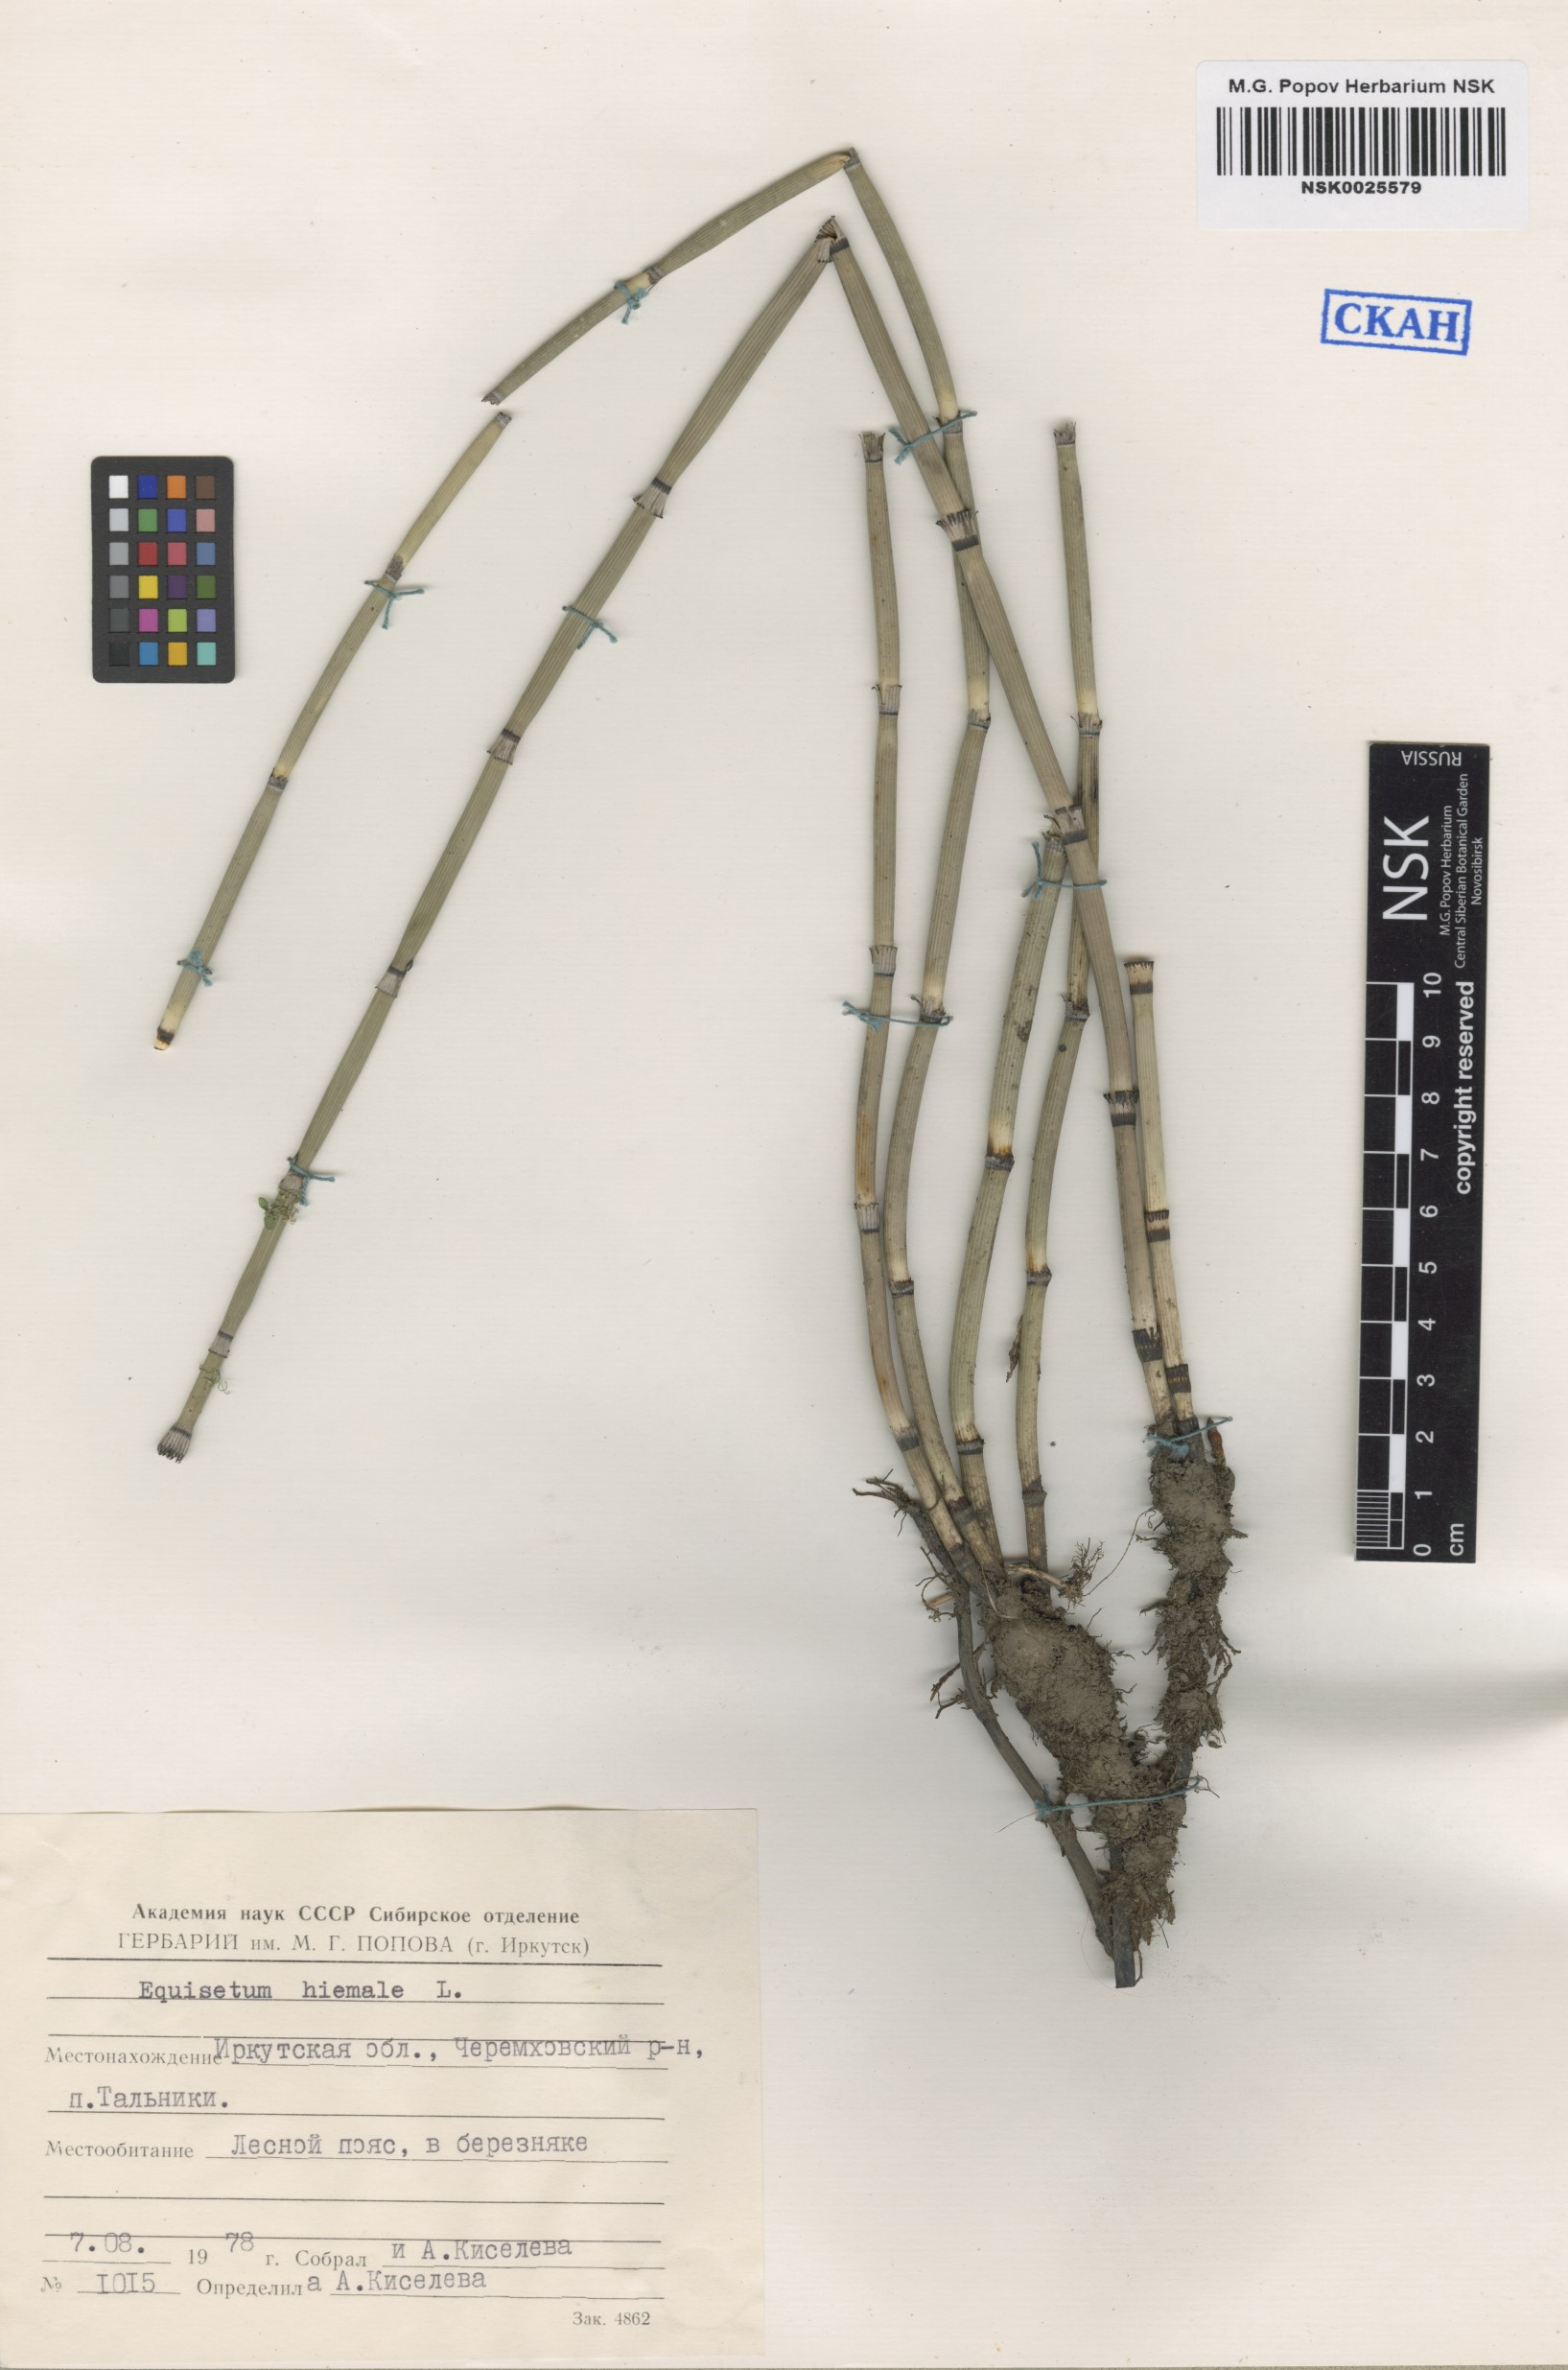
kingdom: Plantae
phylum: Tracheophyta
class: Polypodiopsida
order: Equisetales
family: Equisetaceae
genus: Equisetum
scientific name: Equisetum hyemale
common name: Rough horsetail
